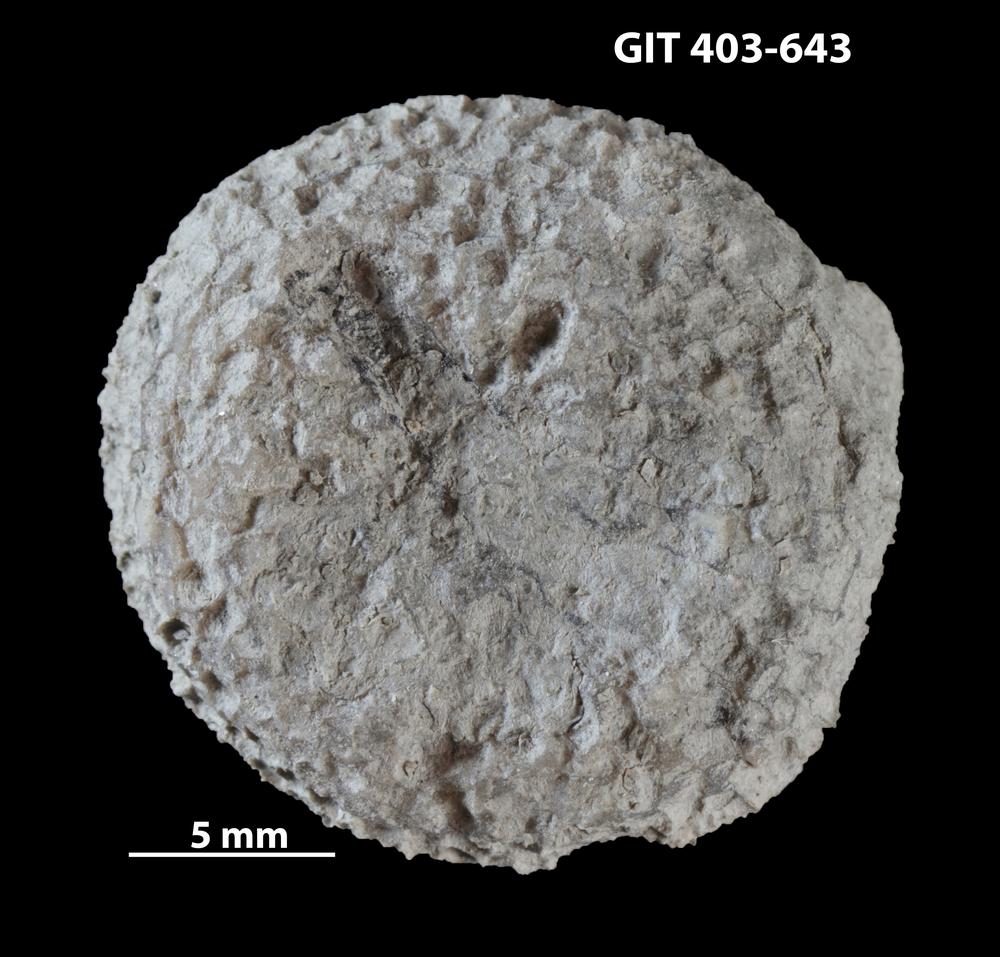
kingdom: Animalia
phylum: Cnidaria
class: Anthozoa
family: Favositidae
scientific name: Favositidae
